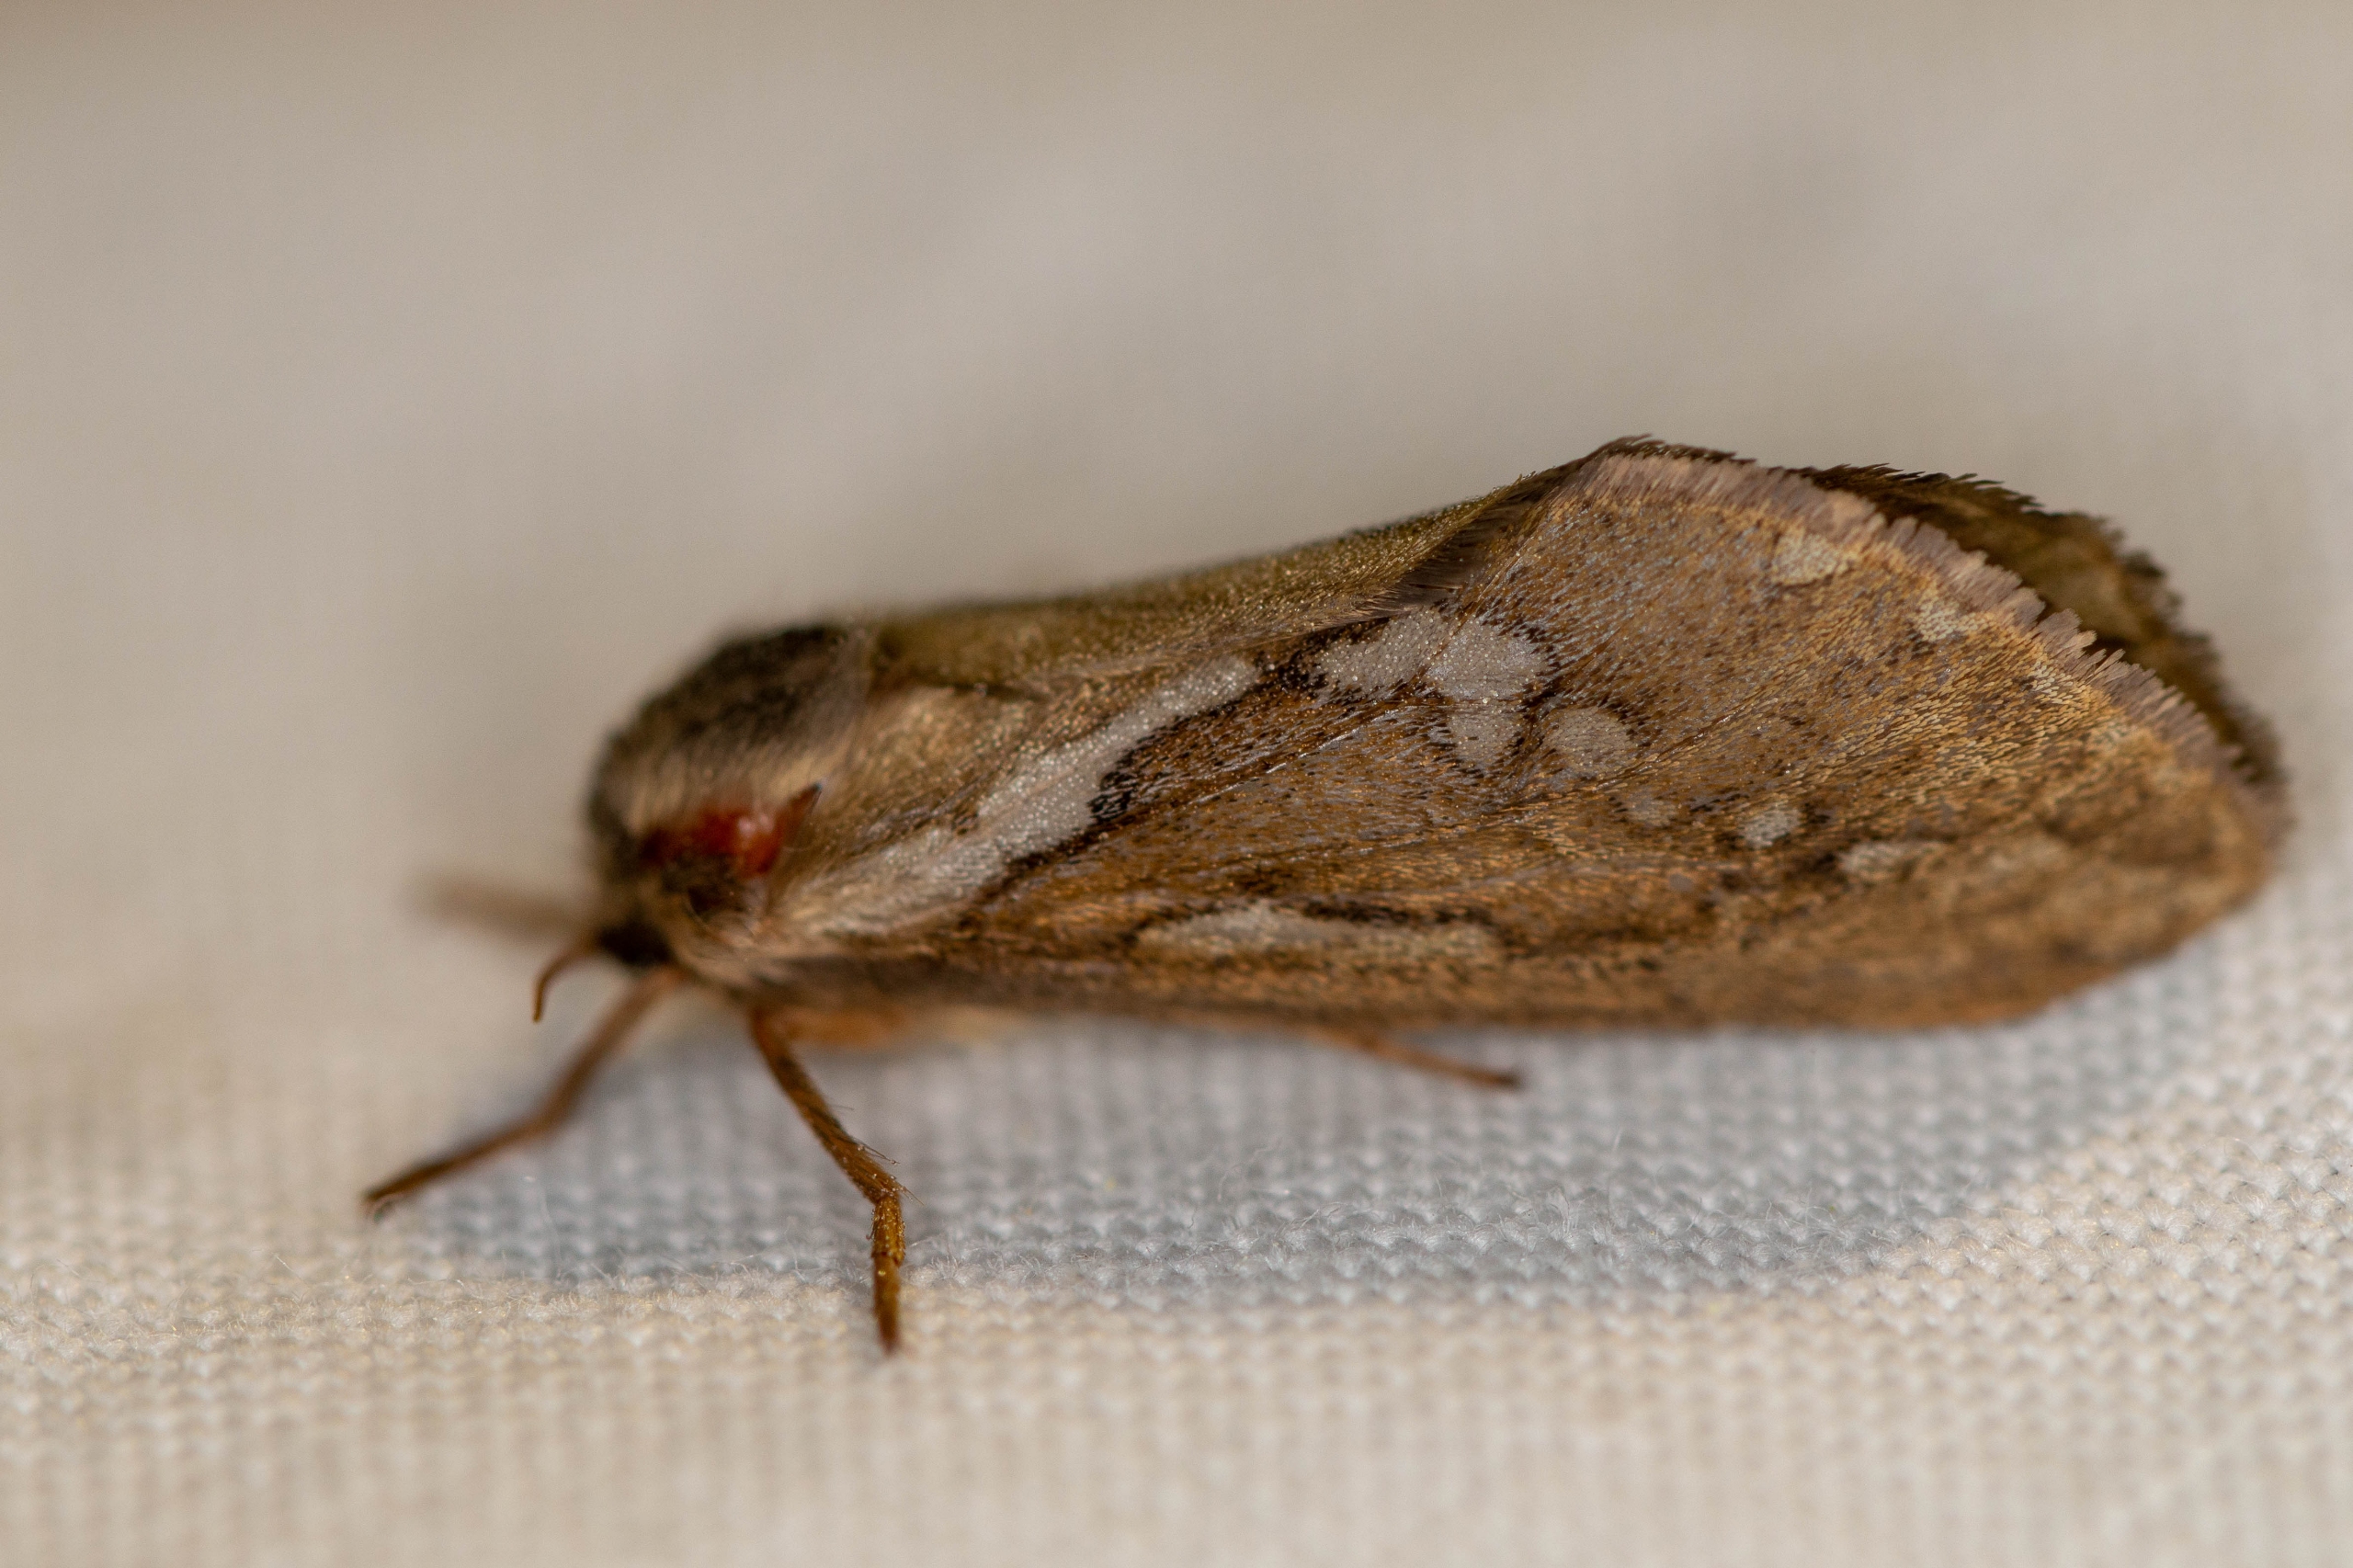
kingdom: Animalia
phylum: Arthropoda
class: Insecta
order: Lepidoptera
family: Hepialidae
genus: Korscheltellus
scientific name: Korscheltellus lupulina
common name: Konvalrodæder
